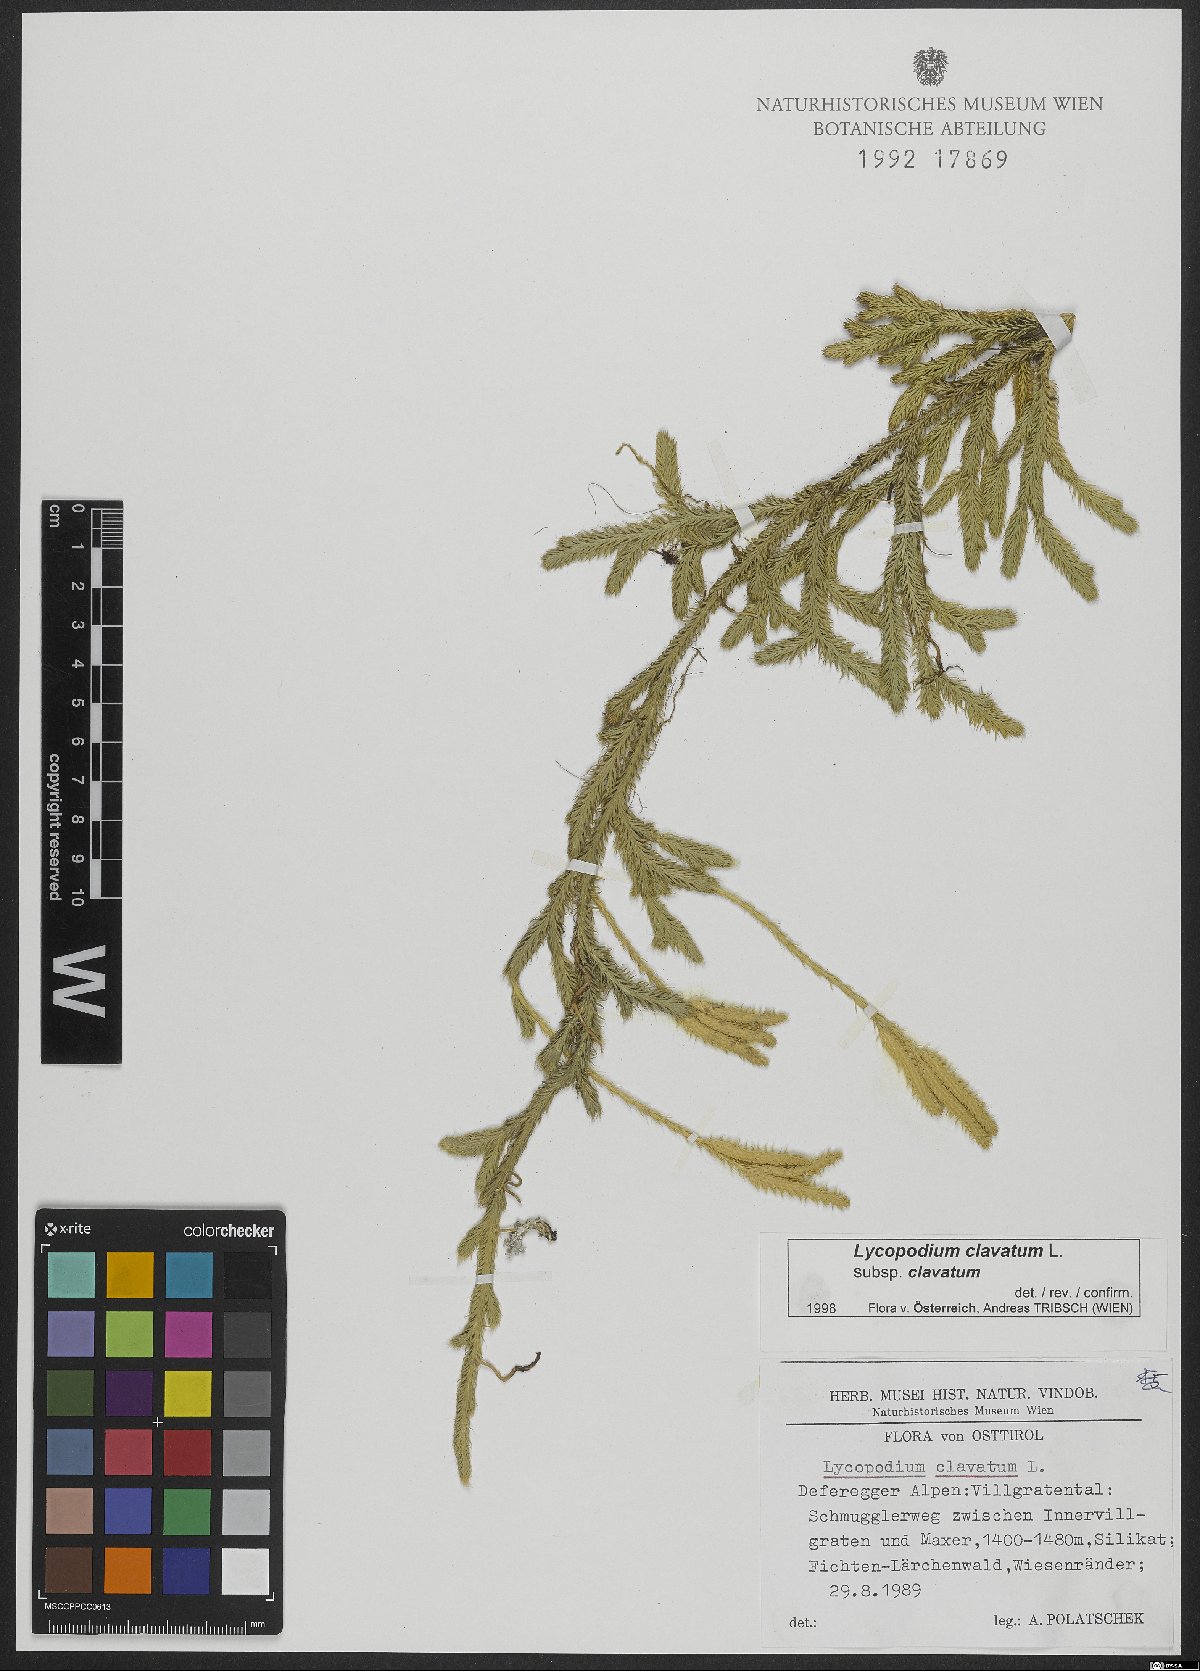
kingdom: Plantae
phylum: Tracheophyta
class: Lycopodiopsida
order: Lycopodiales
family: Lycopodiaceae
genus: Lycopodium
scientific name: Lycopodium clavatum
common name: Stag's-horn clubmoss
